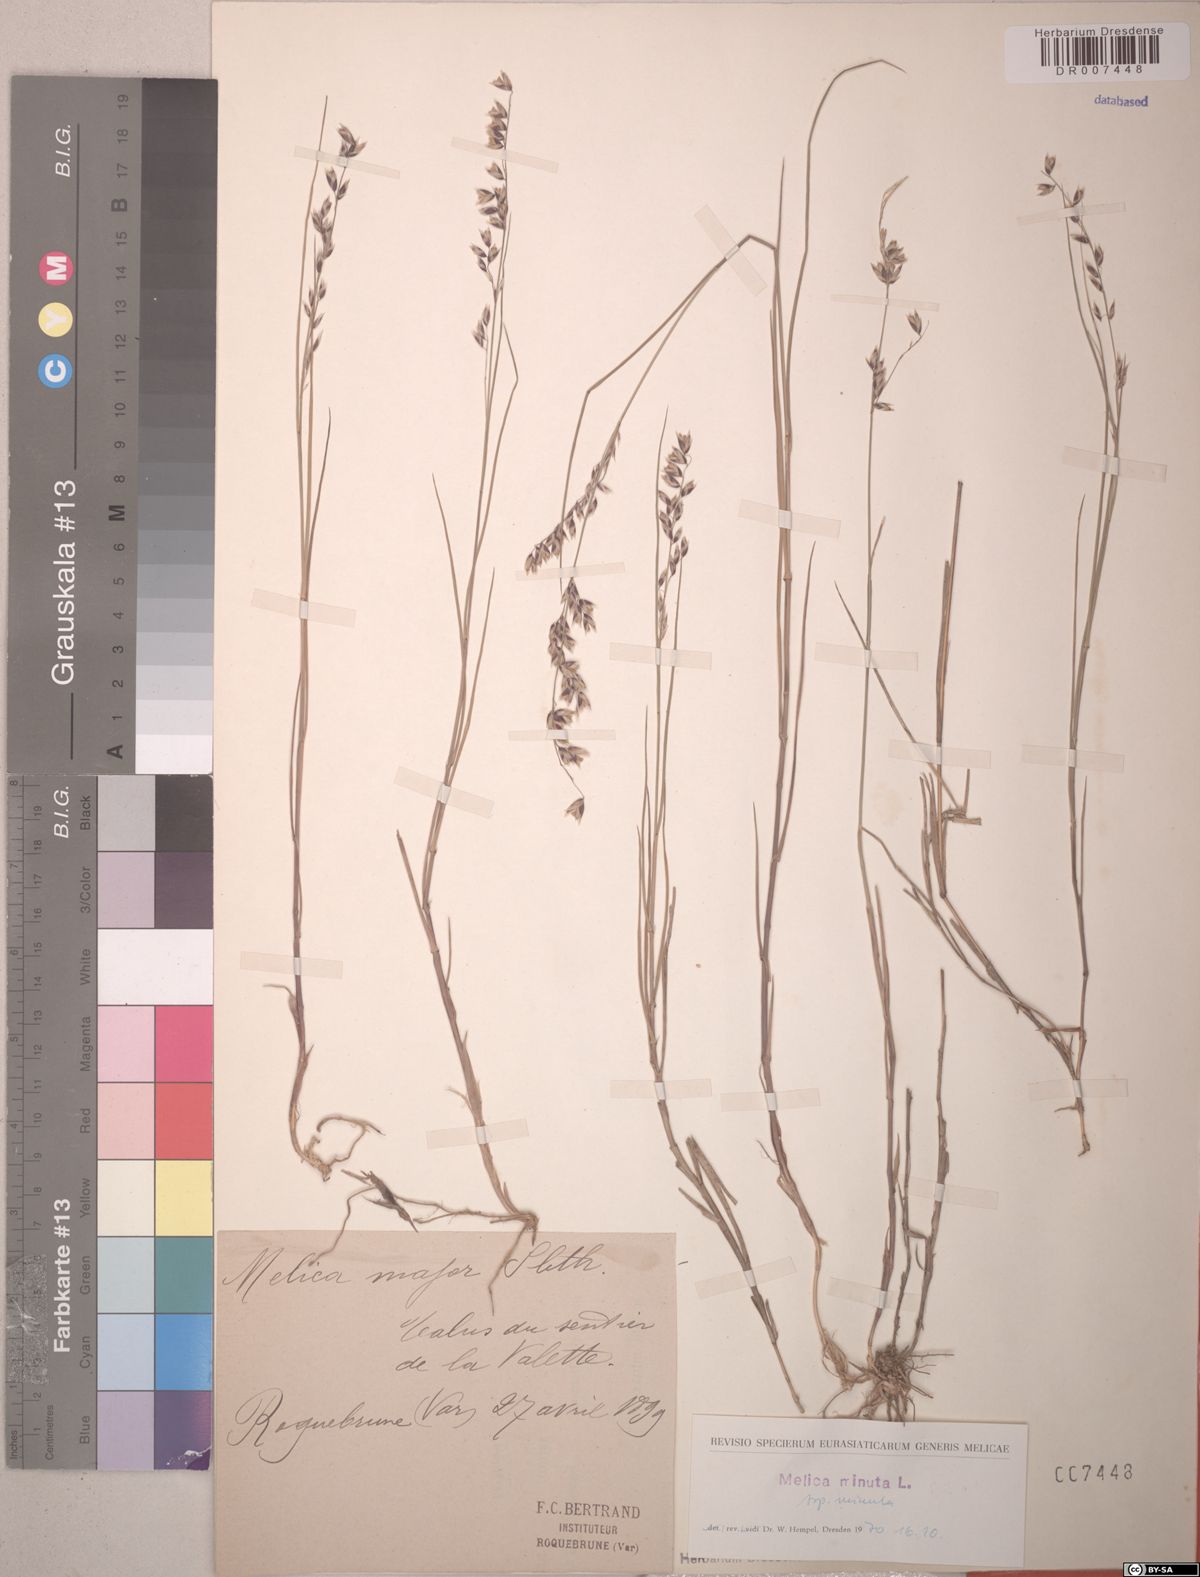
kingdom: Plantae
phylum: Tracheophyta
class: Liliopsida
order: Poales
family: Poaceae
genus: Melica
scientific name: Melica minuta
